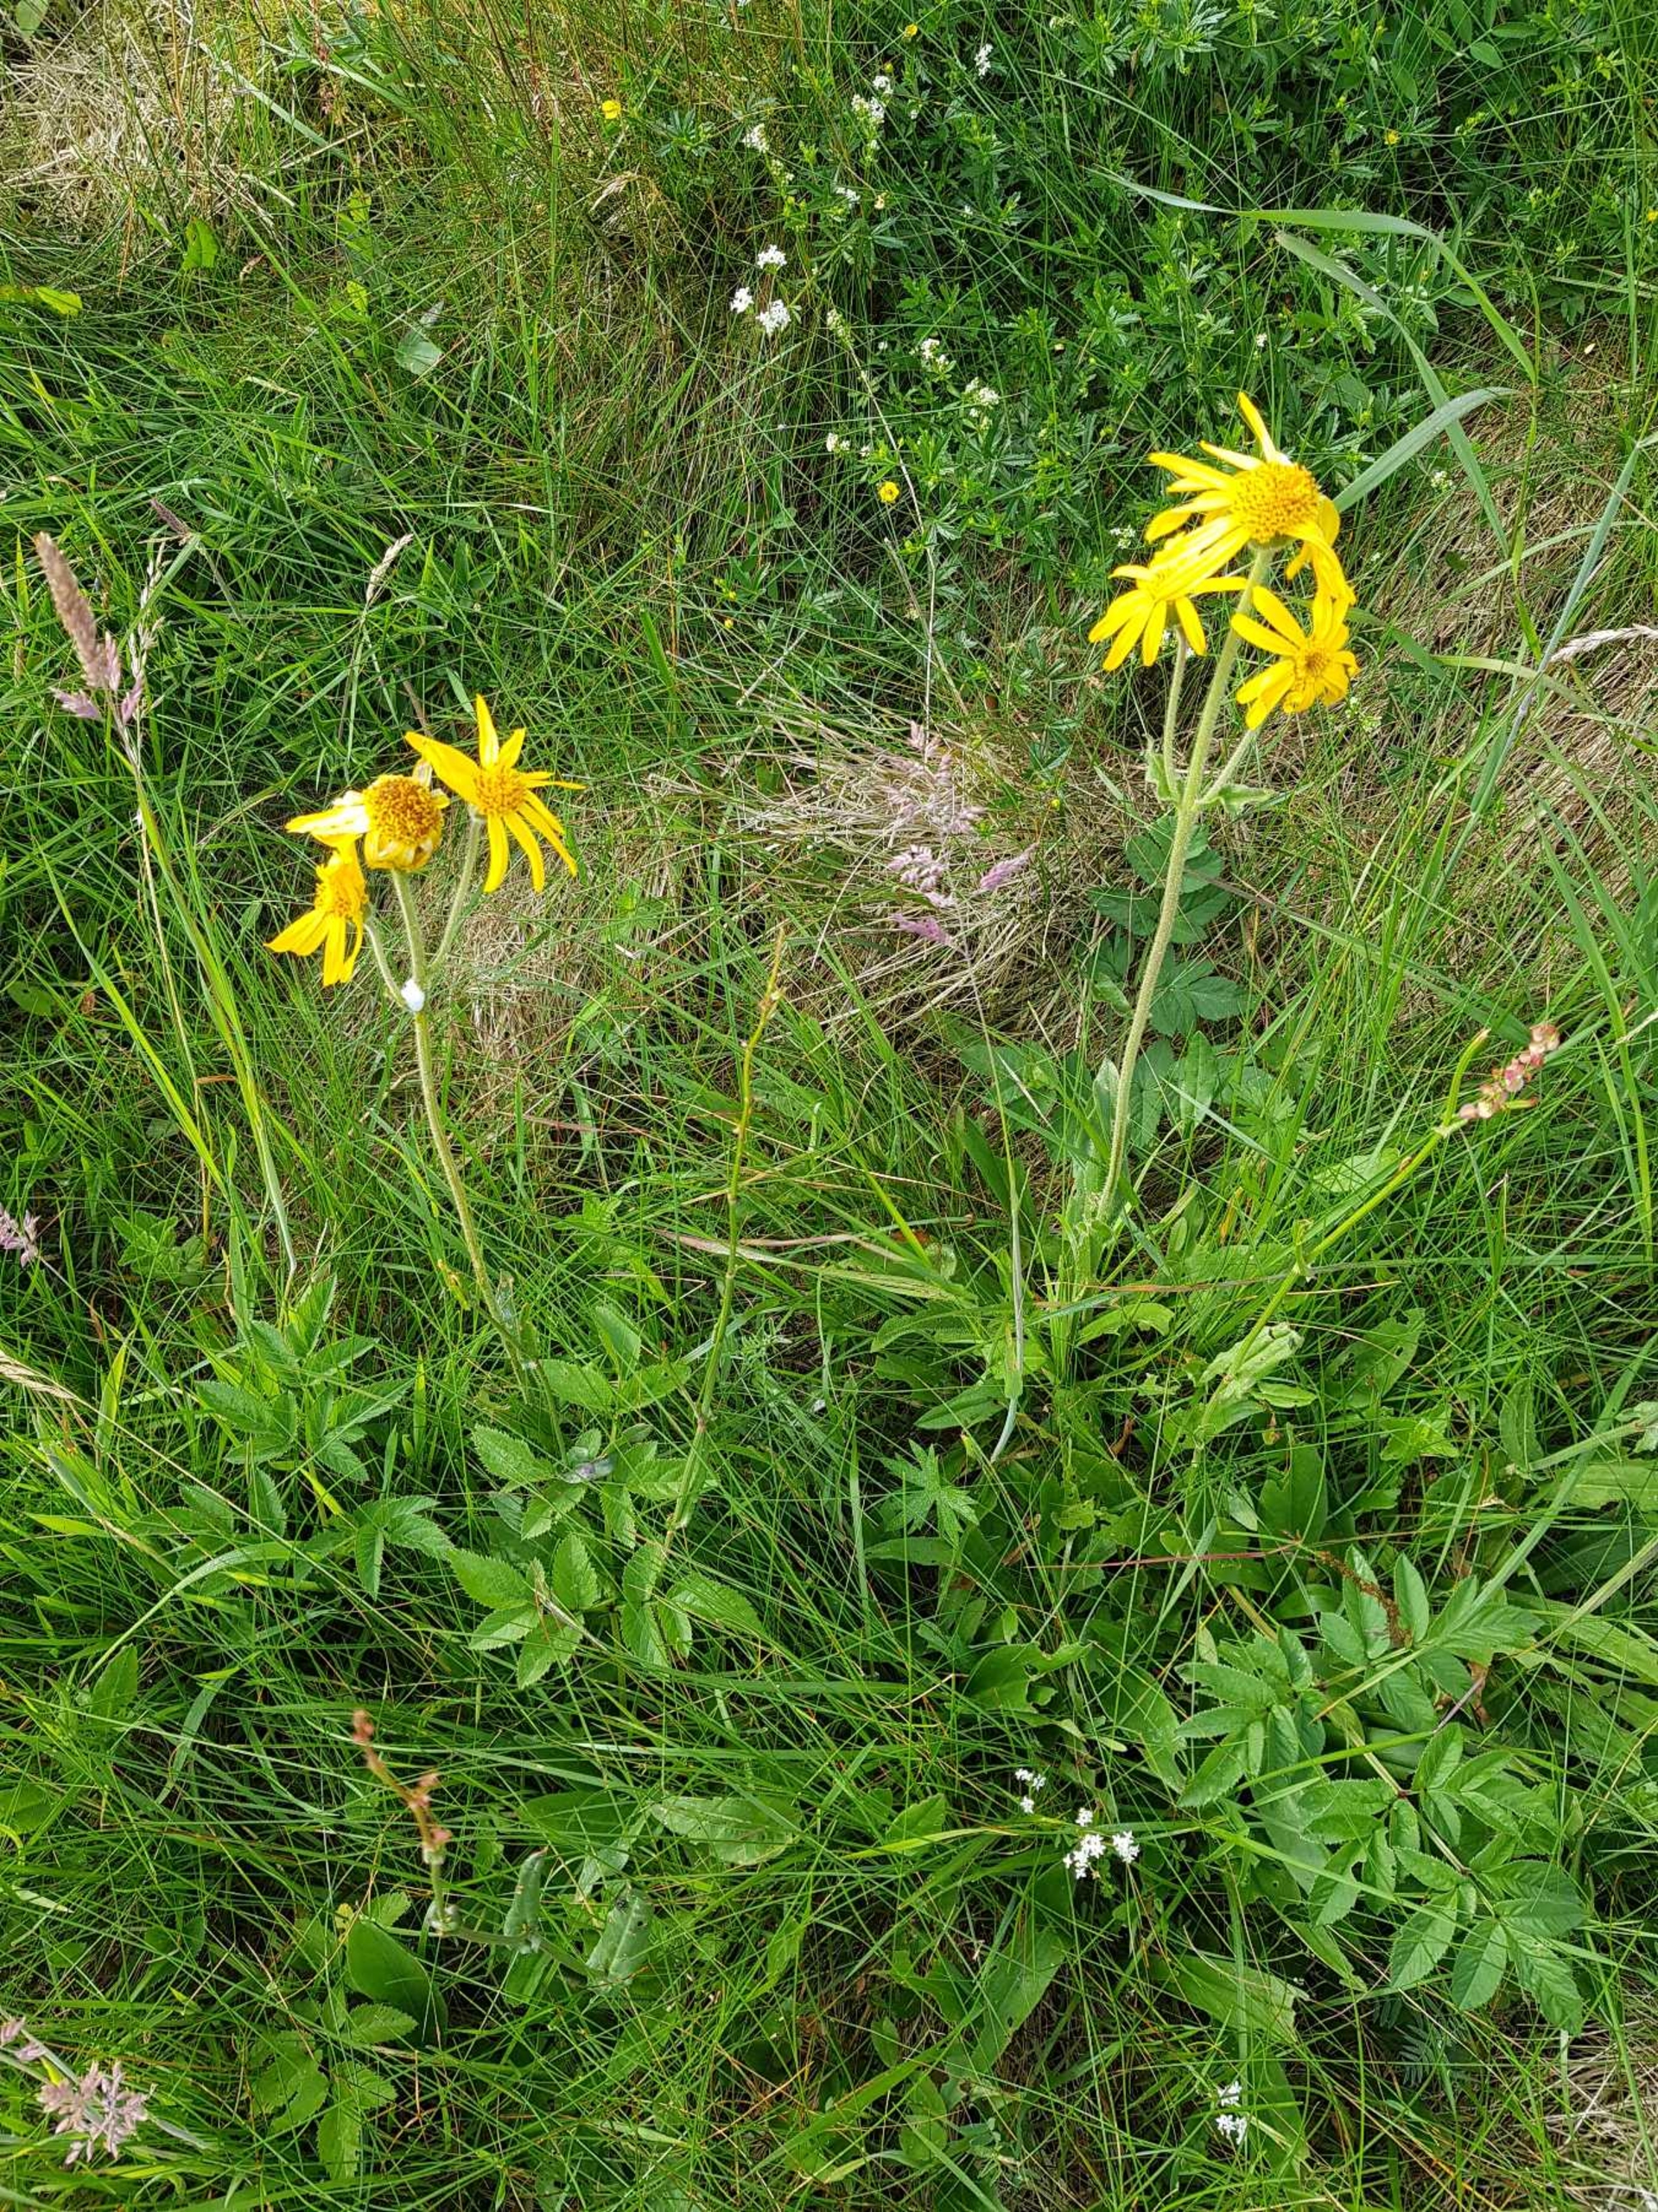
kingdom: Plantae
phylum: Tracheophyta
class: Magnoliopsida
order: Asterales
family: Asteraceae
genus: Arnica
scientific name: Arnica montana
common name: Guldblomme
